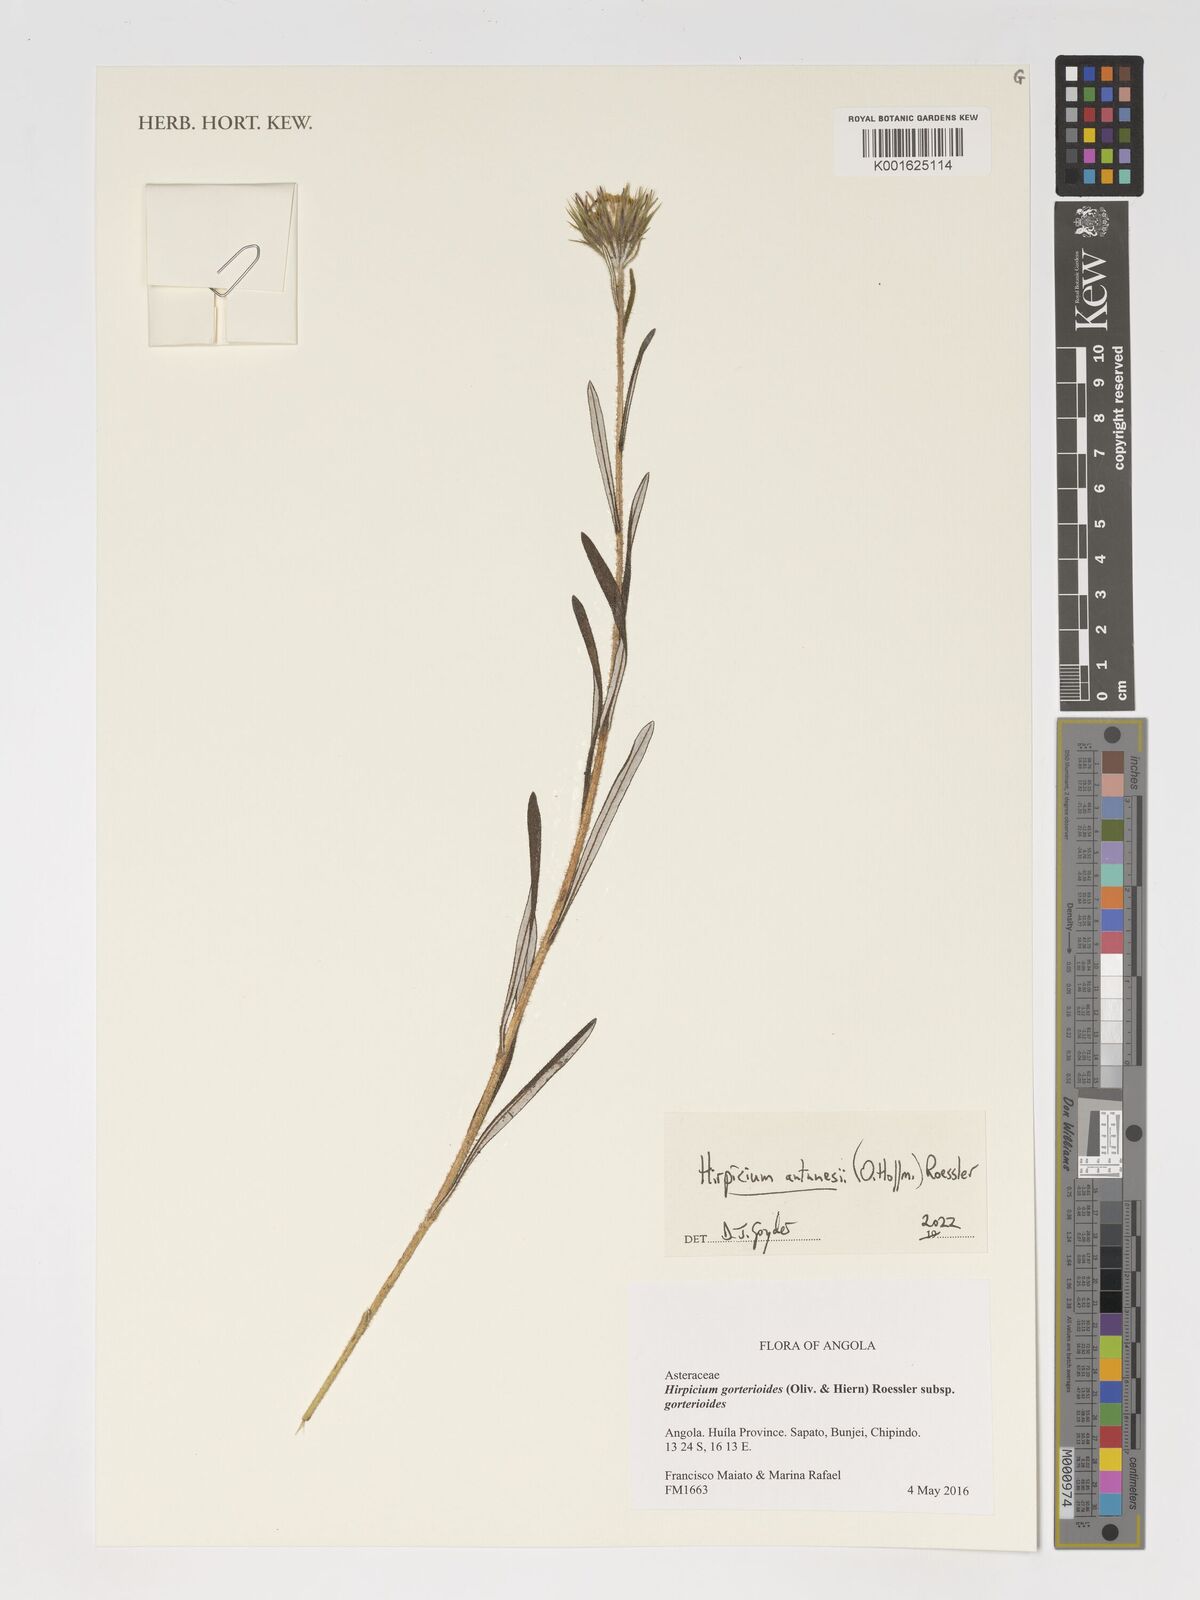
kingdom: Plantae
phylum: Tracheophyta
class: Magnoliopsida
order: Asterales
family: Asteraceae
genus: Gorteria
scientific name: Gorteria antunesii
